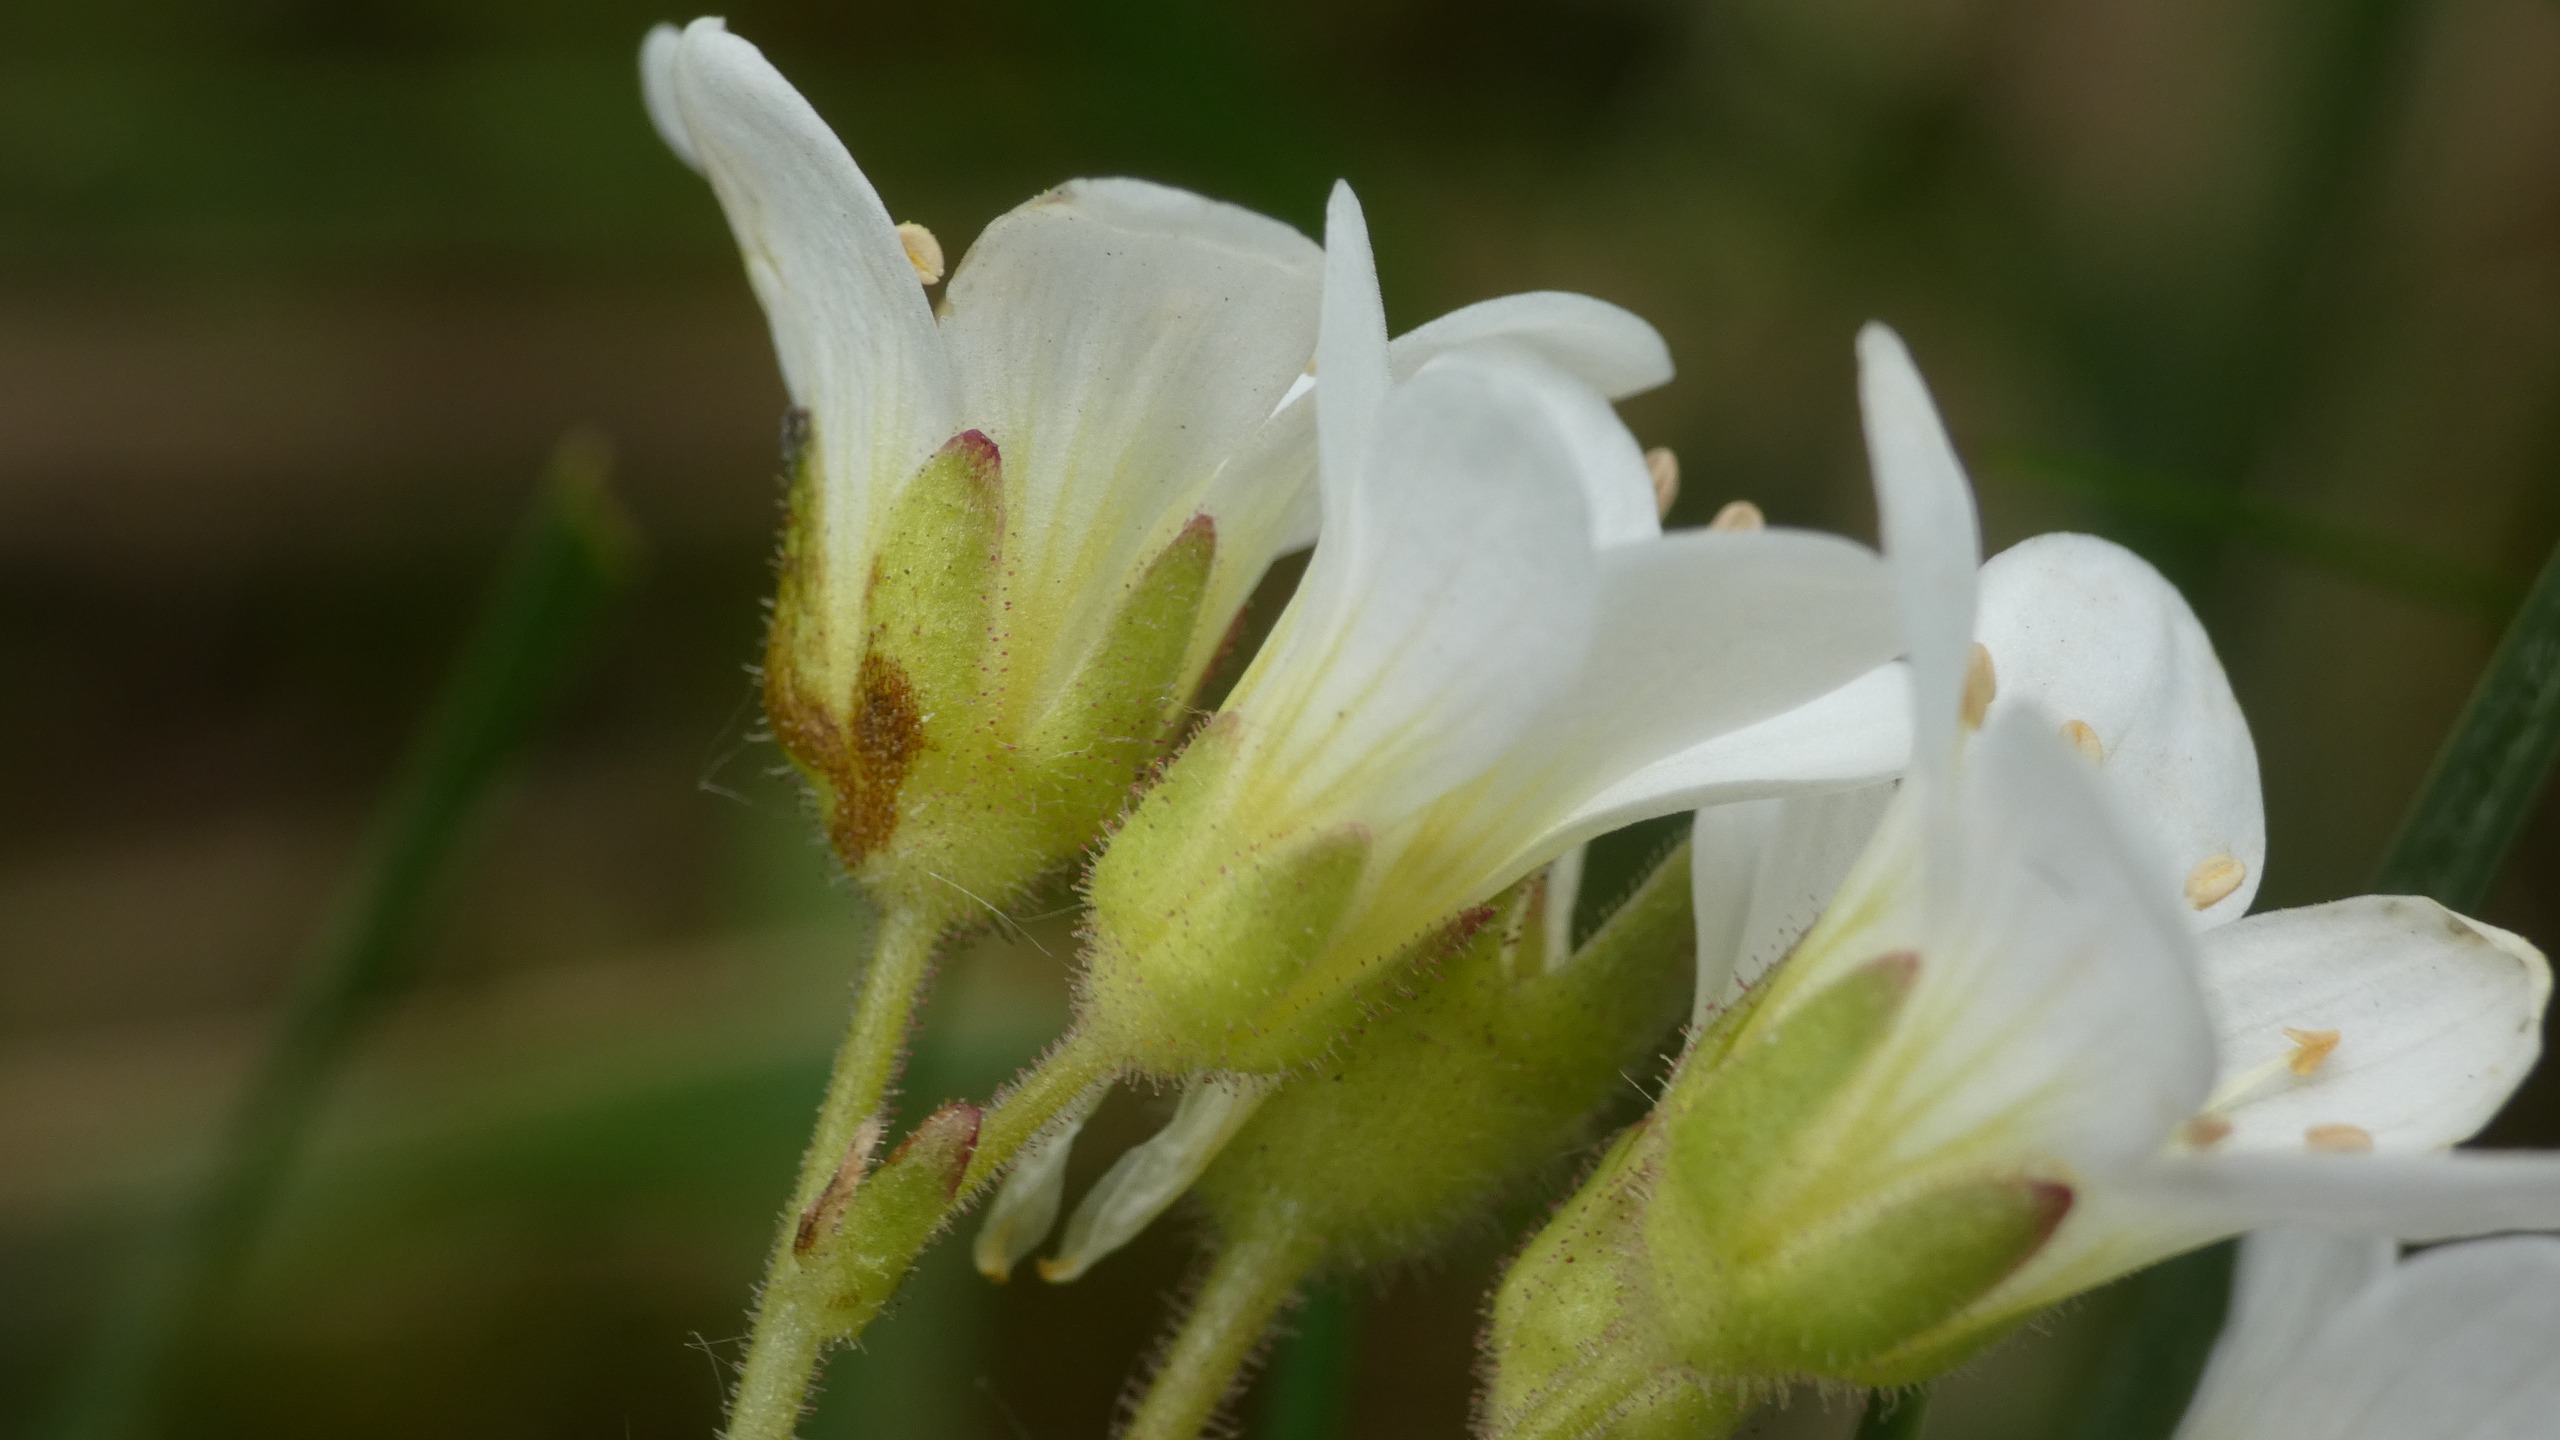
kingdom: Plantae
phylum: Tracheophyta
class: Magnoliopsida
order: Saxifragales
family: Saxifragaceae
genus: Saxifraga
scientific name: Saxifraga granulata
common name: Kornet stenbræk
